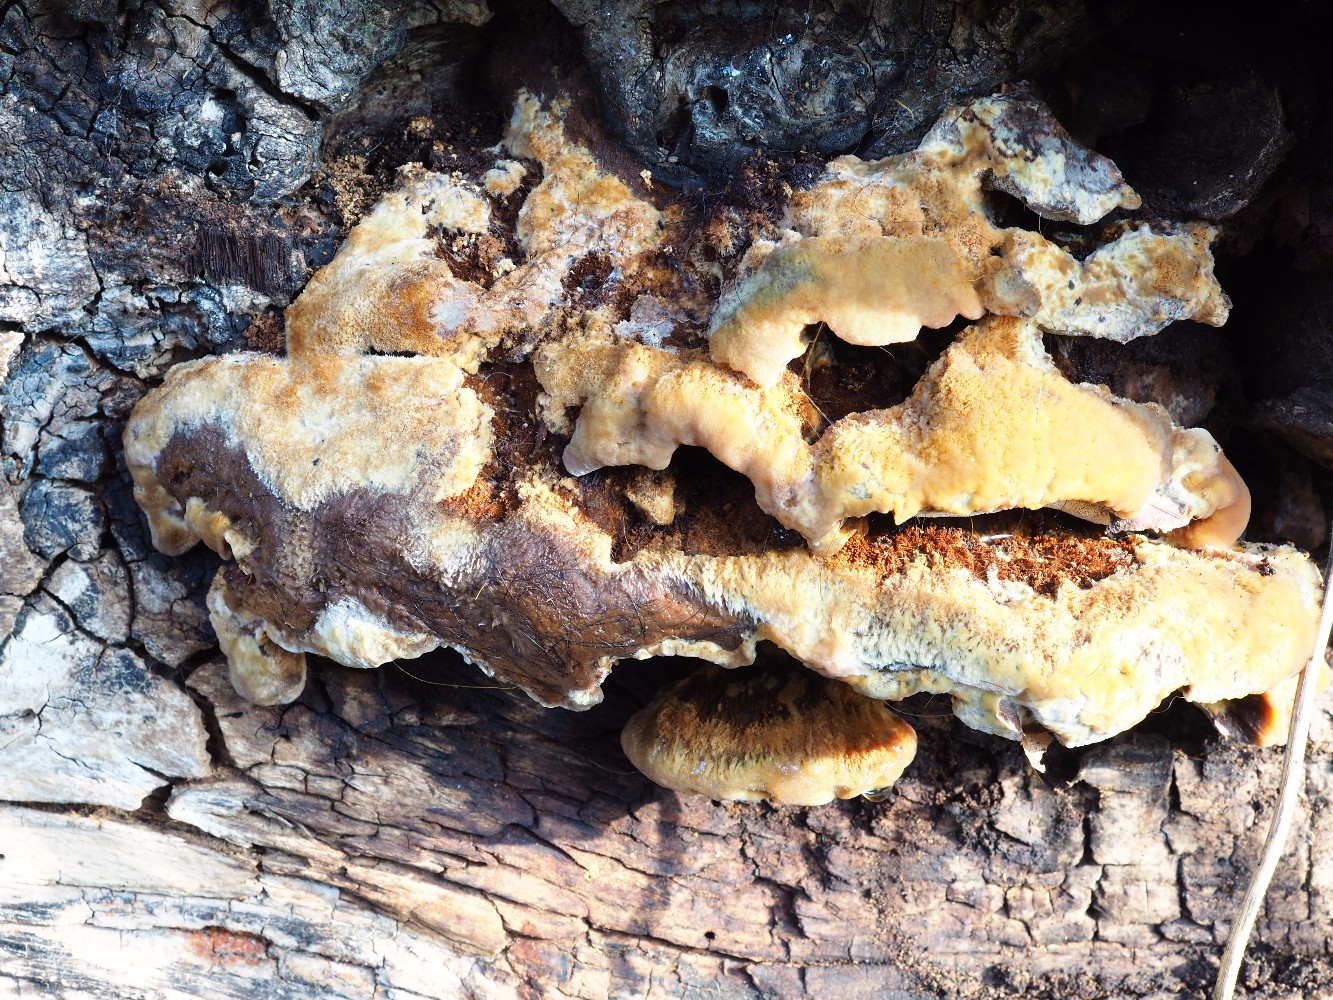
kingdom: Fungi
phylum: Basidiomycota
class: Agaricomycetes
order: Hymenochaetales
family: Hymenochaetaceae
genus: Inonotus
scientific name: Inonotus cuticularis
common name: kroghåret spejlporesvamp
